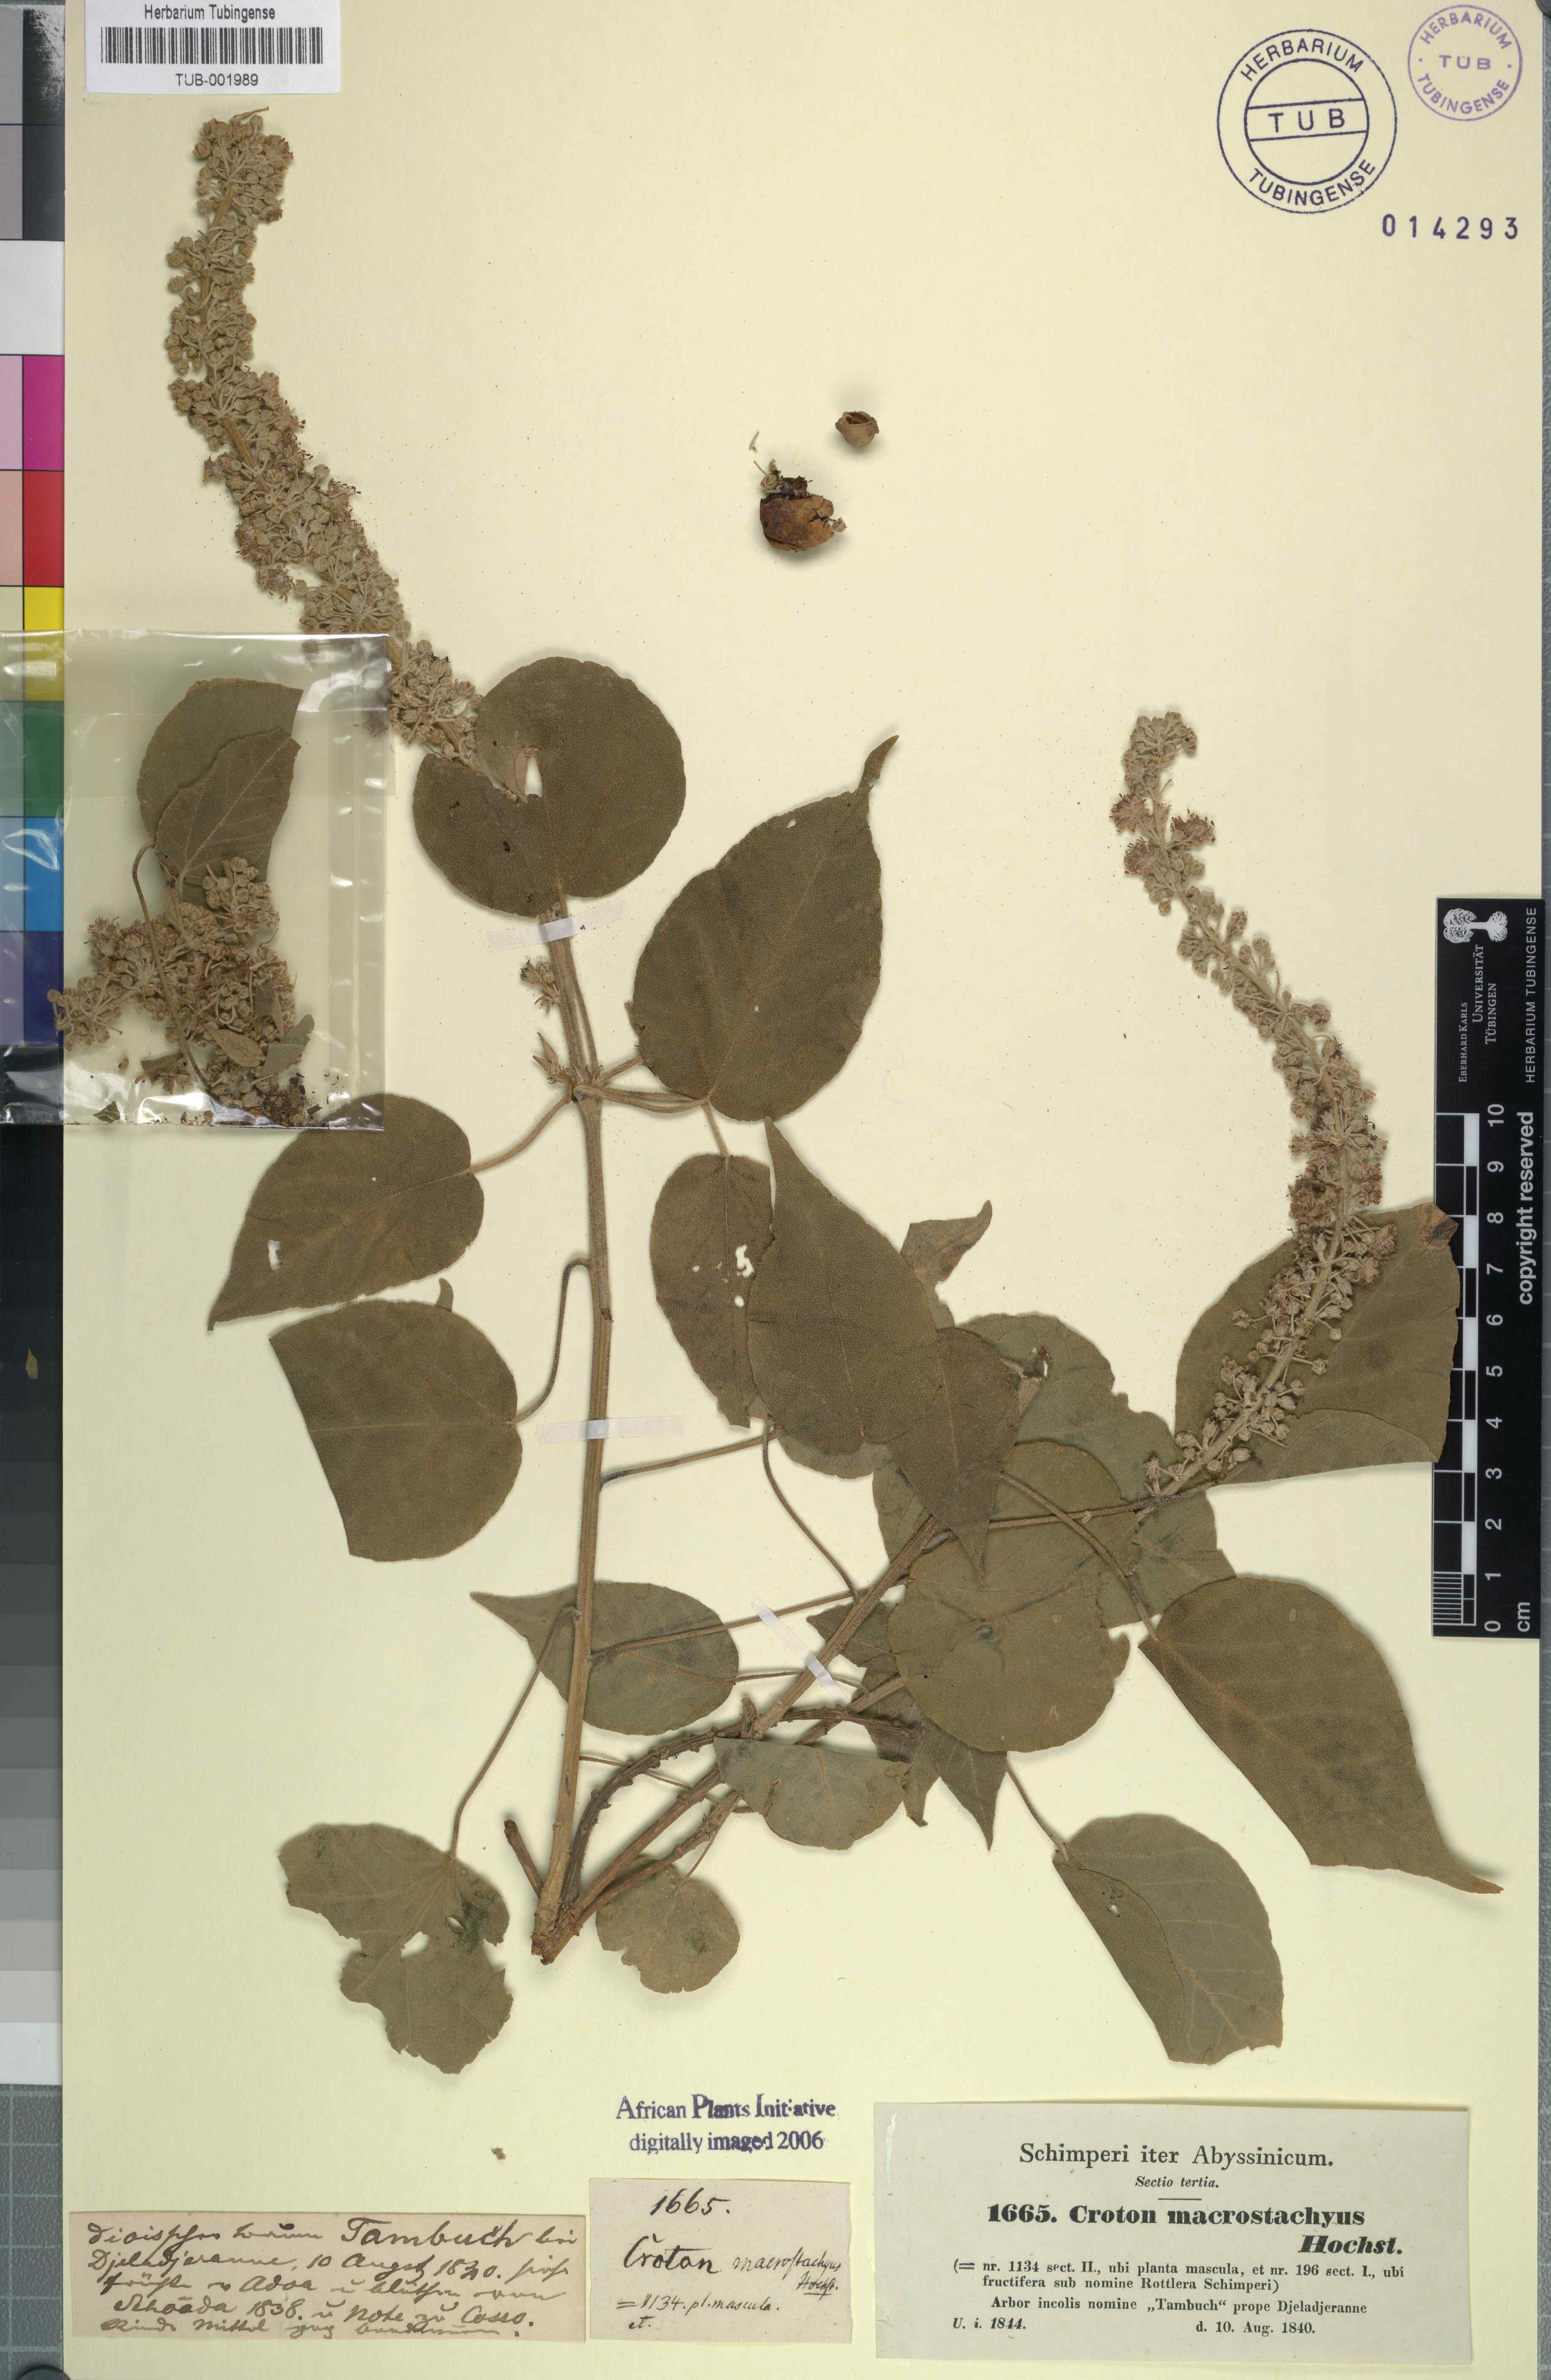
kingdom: Plantae
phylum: Tracheophyta
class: Magnoliopsida
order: Malpighiales
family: Euphorbiaceae
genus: Croton
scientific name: Croton macrostachys
